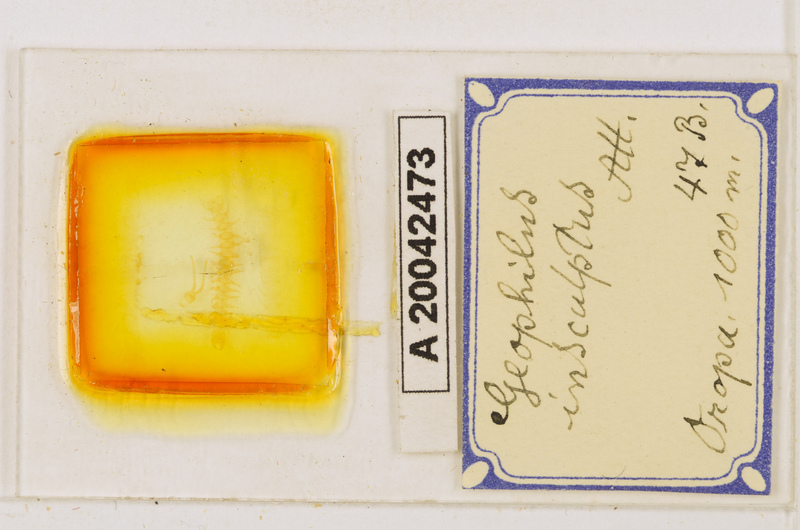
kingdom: Animalia
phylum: Arthropoda
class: Chilopoda
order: Geophilomorpha
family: Geophilidae
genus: Geophilus
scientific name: Geophilus insculptus
